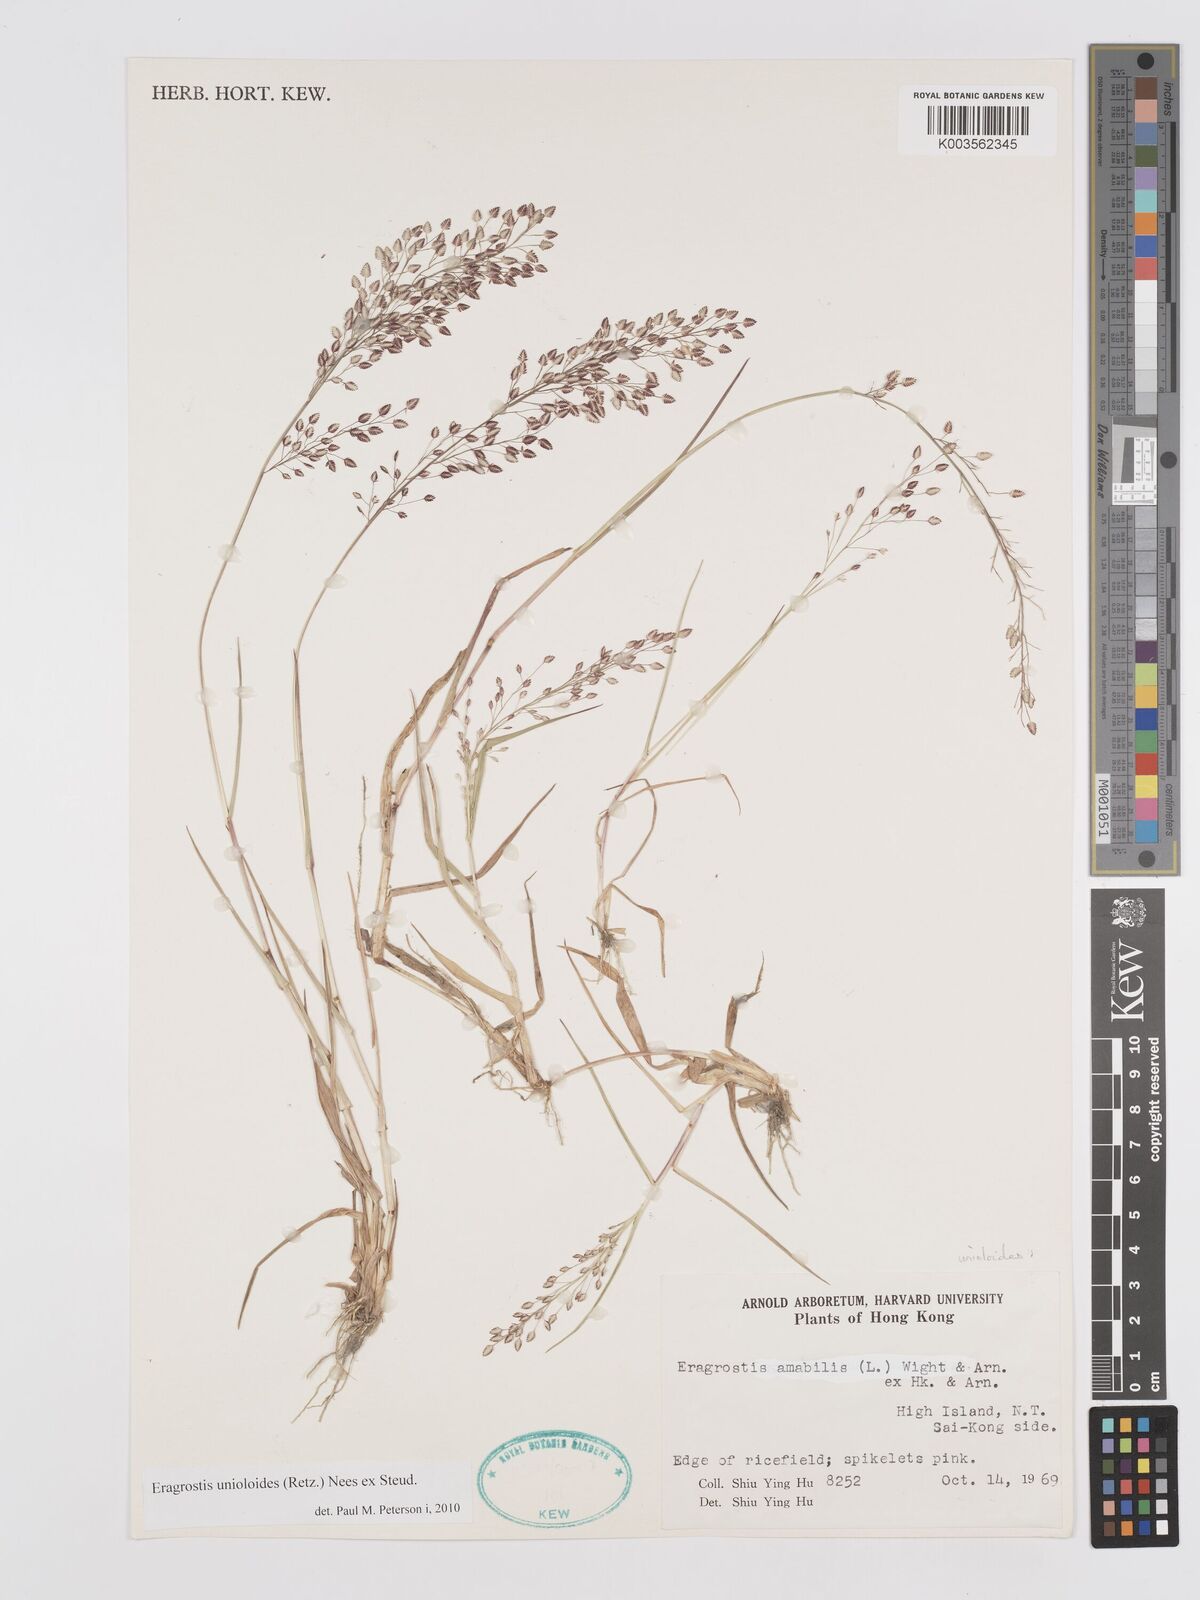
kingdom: Plantae
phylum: Tracheophyta
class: Liliopsida
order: Poales
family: Poaceae
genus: Eragrostis
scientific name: Eragrostis unioloides
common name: Chinese lovegrass
